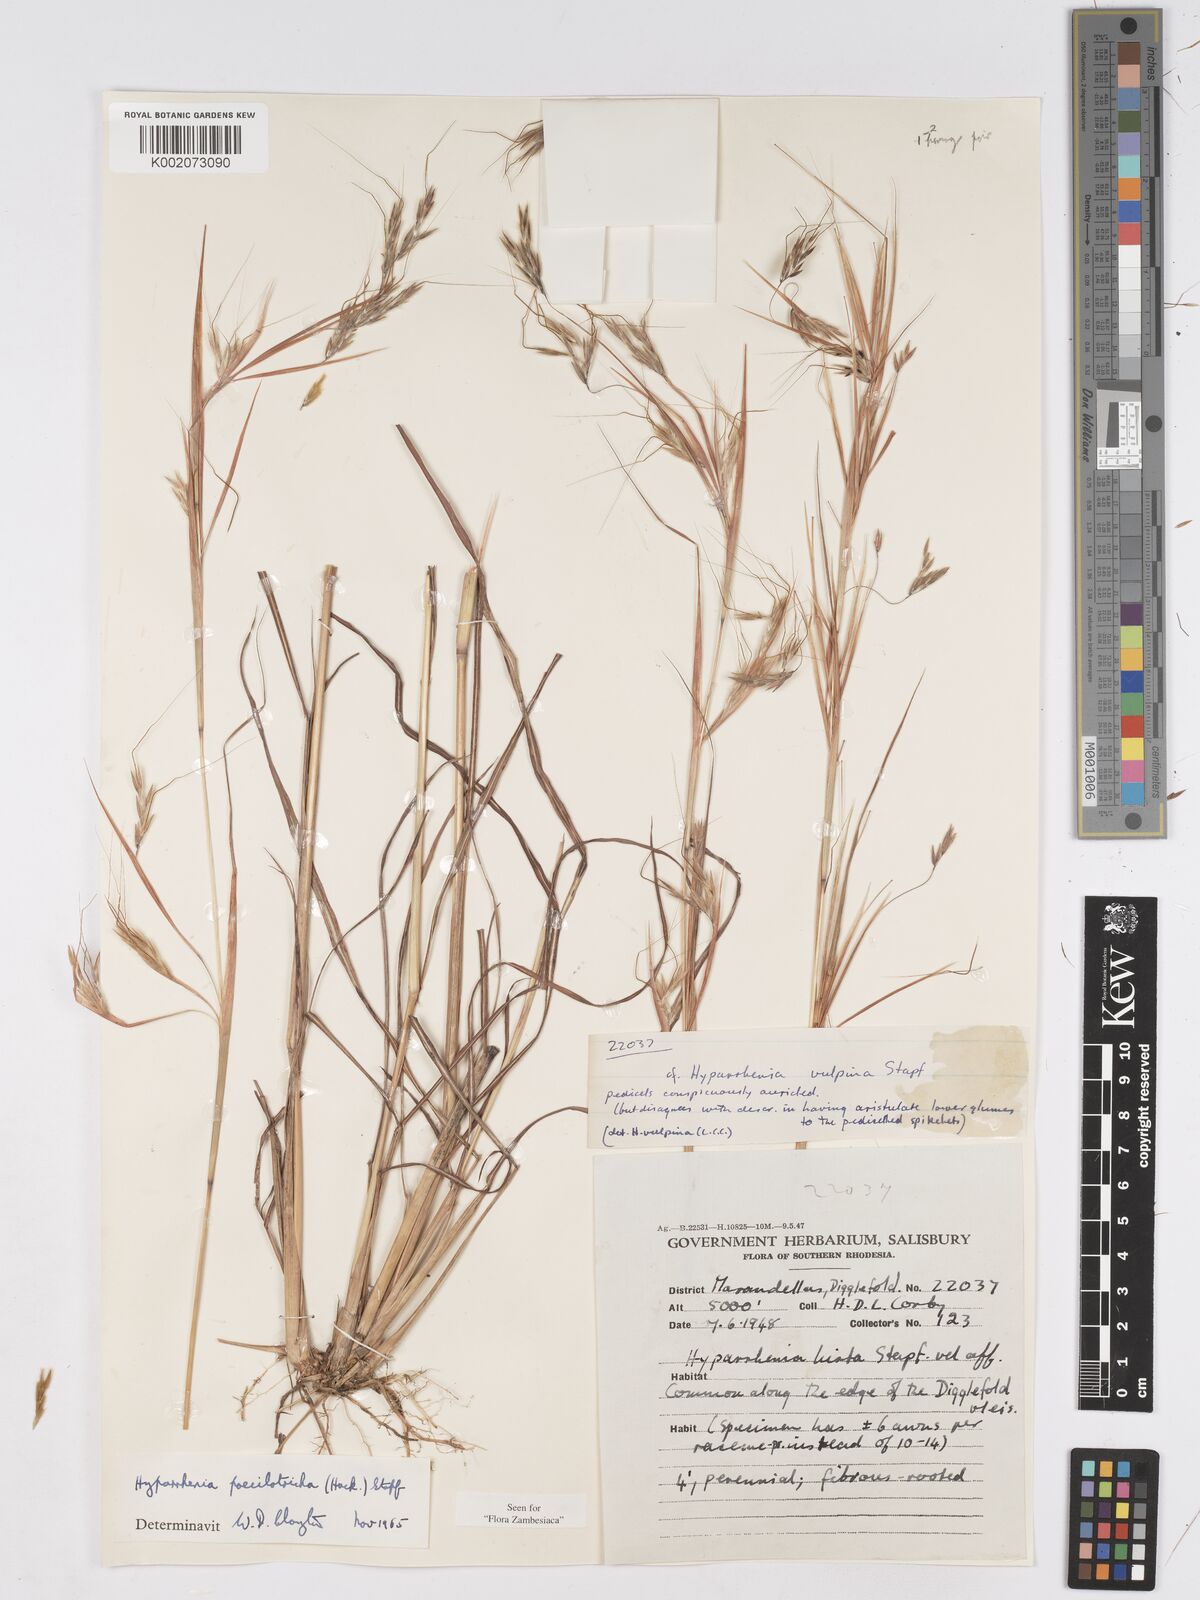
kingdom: Plantae
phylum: Tracheophyta
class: Liliopsida
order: Poales
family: Poaceae
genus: Hyparrhenia
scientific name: Hyparrhenia poecilotricha
